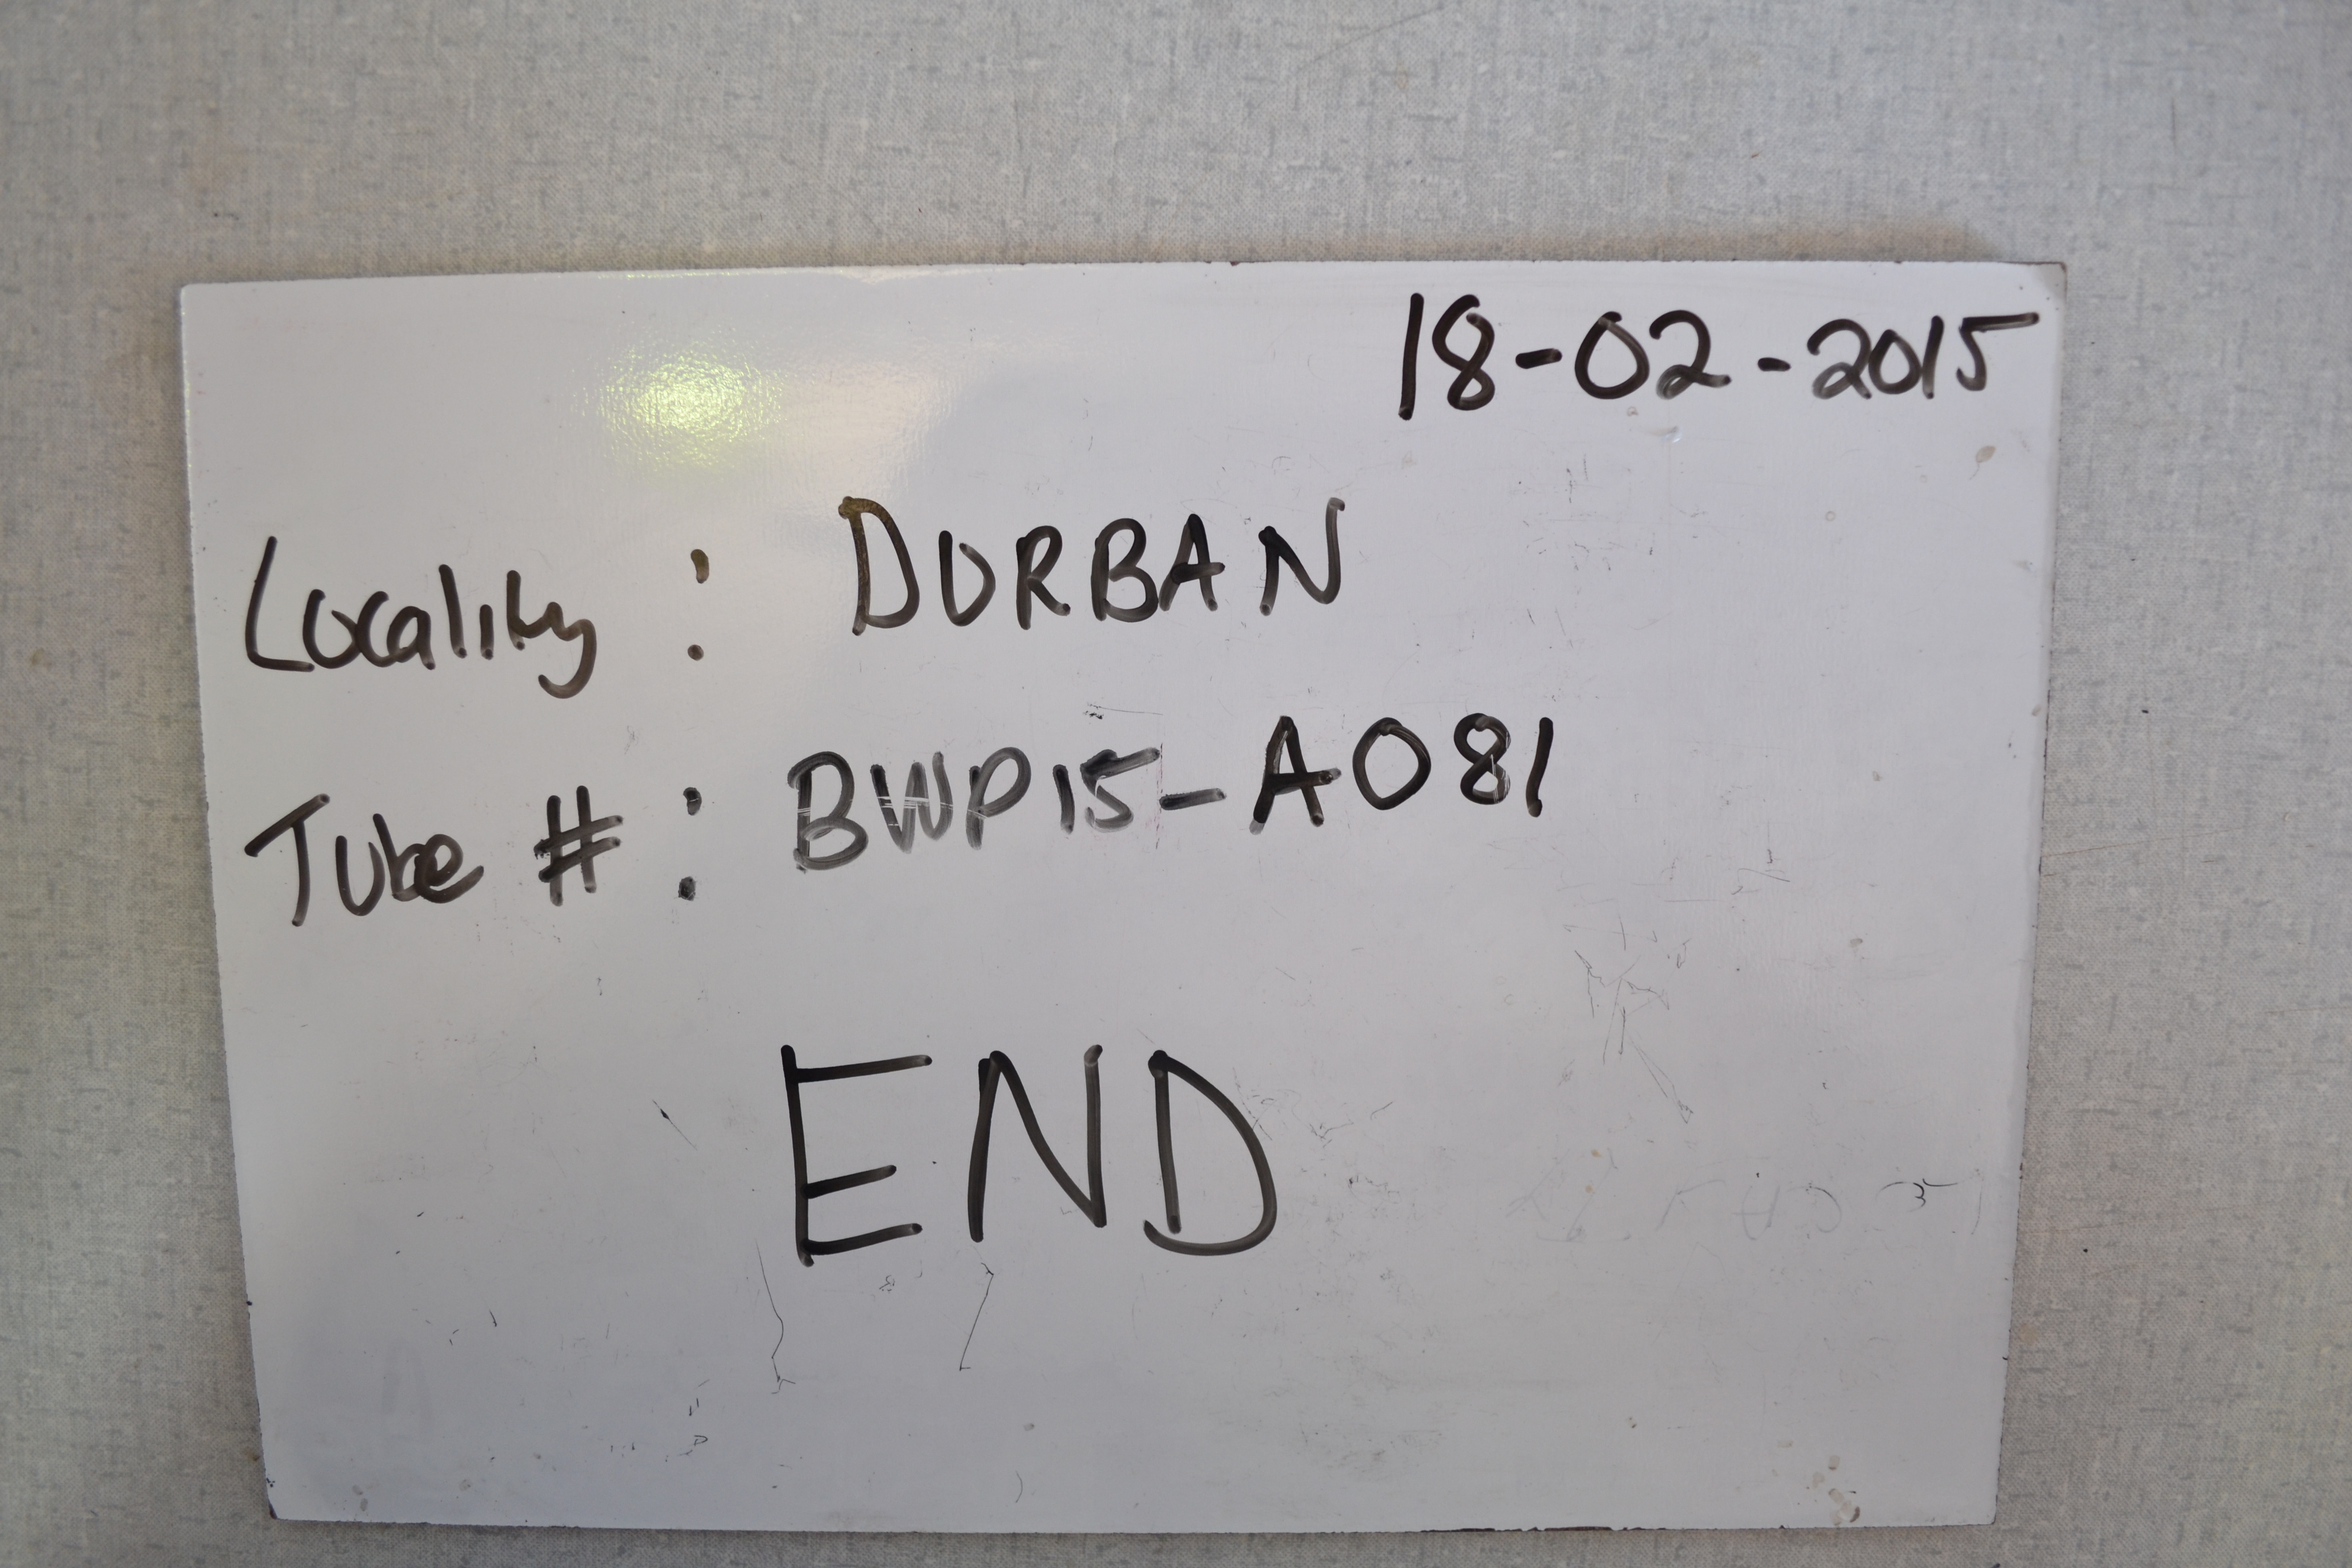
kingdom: Animalia
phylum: Chordata
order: Perciformes
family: Sparidae
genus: Chrysoblephus
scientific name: Chrysoblephus anglicus
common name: Englishman
